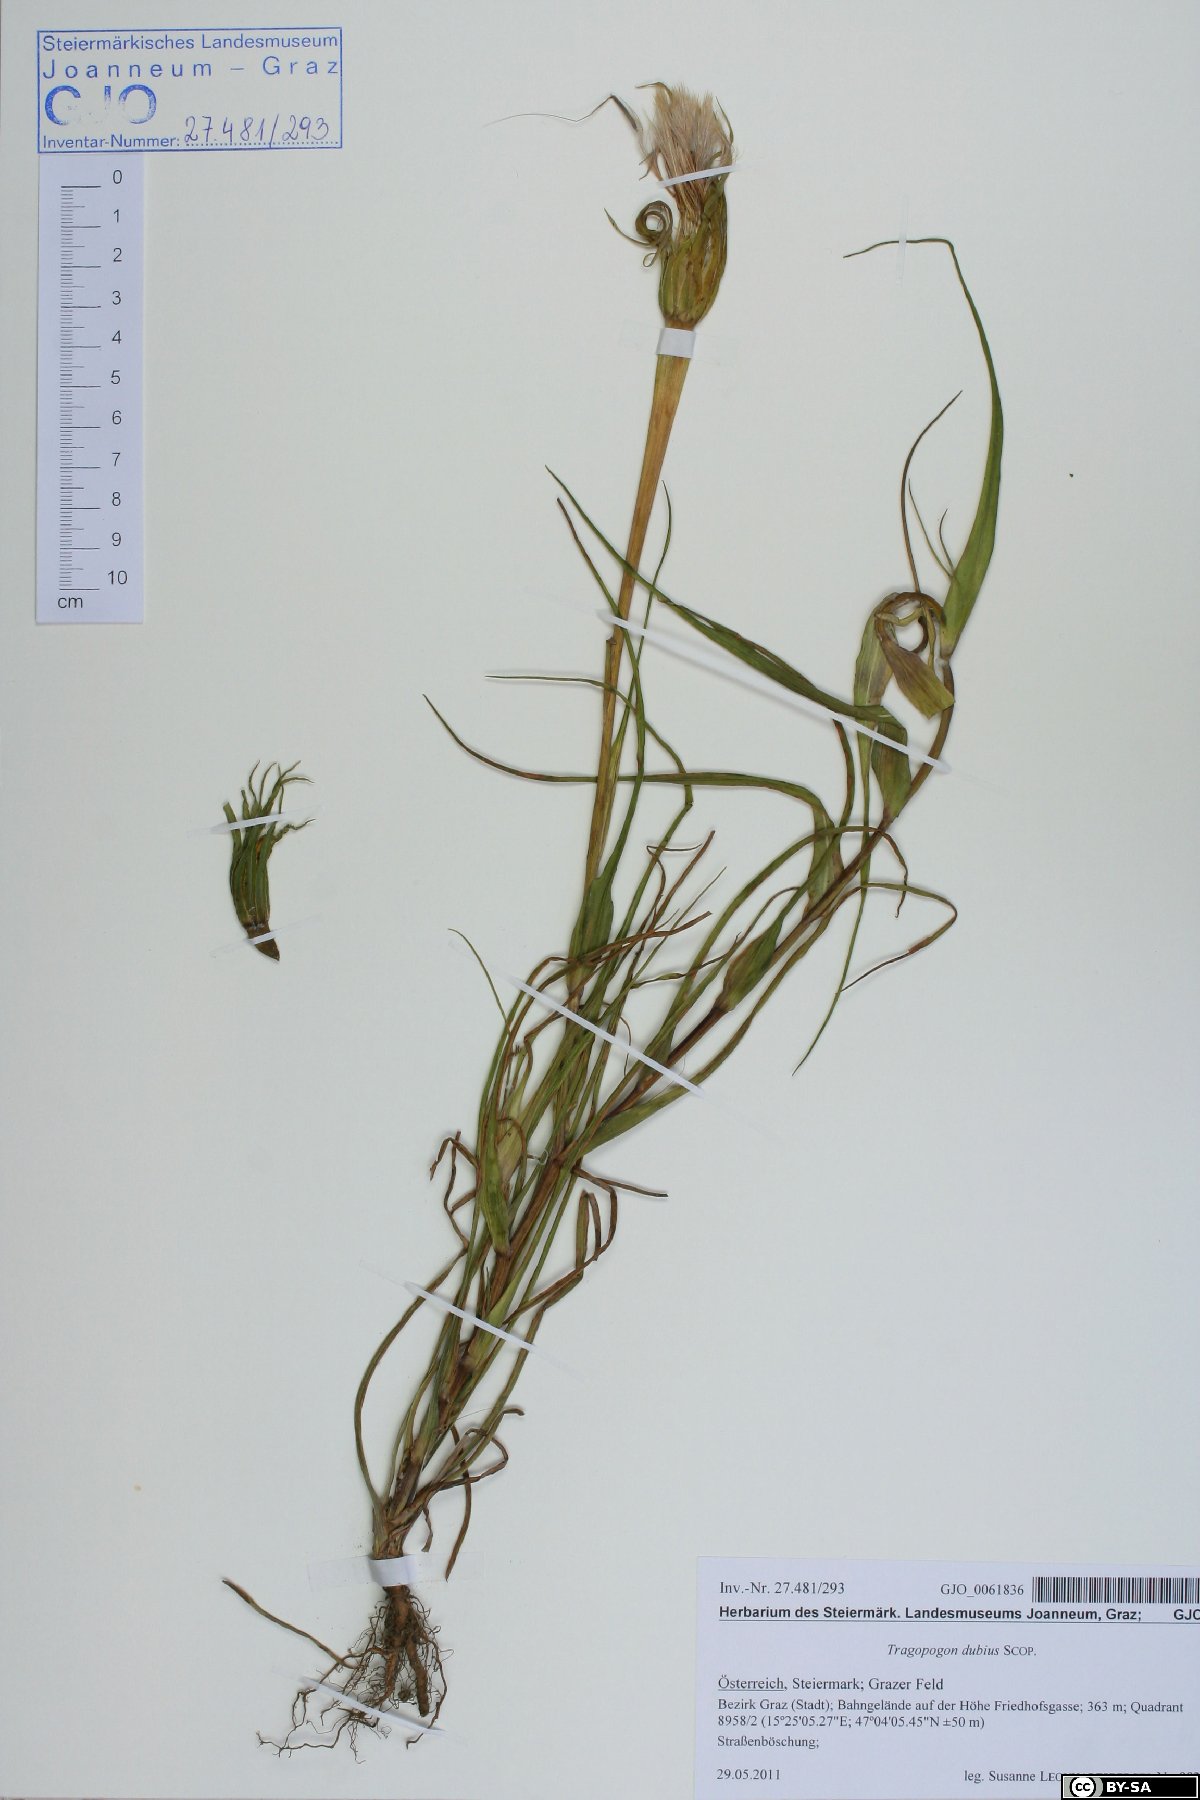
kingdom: Plantae
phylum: Tracheophyta
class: Magnoliopsida
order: Asterales
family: Asteraceae
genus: Tragopogon
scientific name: Tragopogon dubius
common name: Yellow salsify
